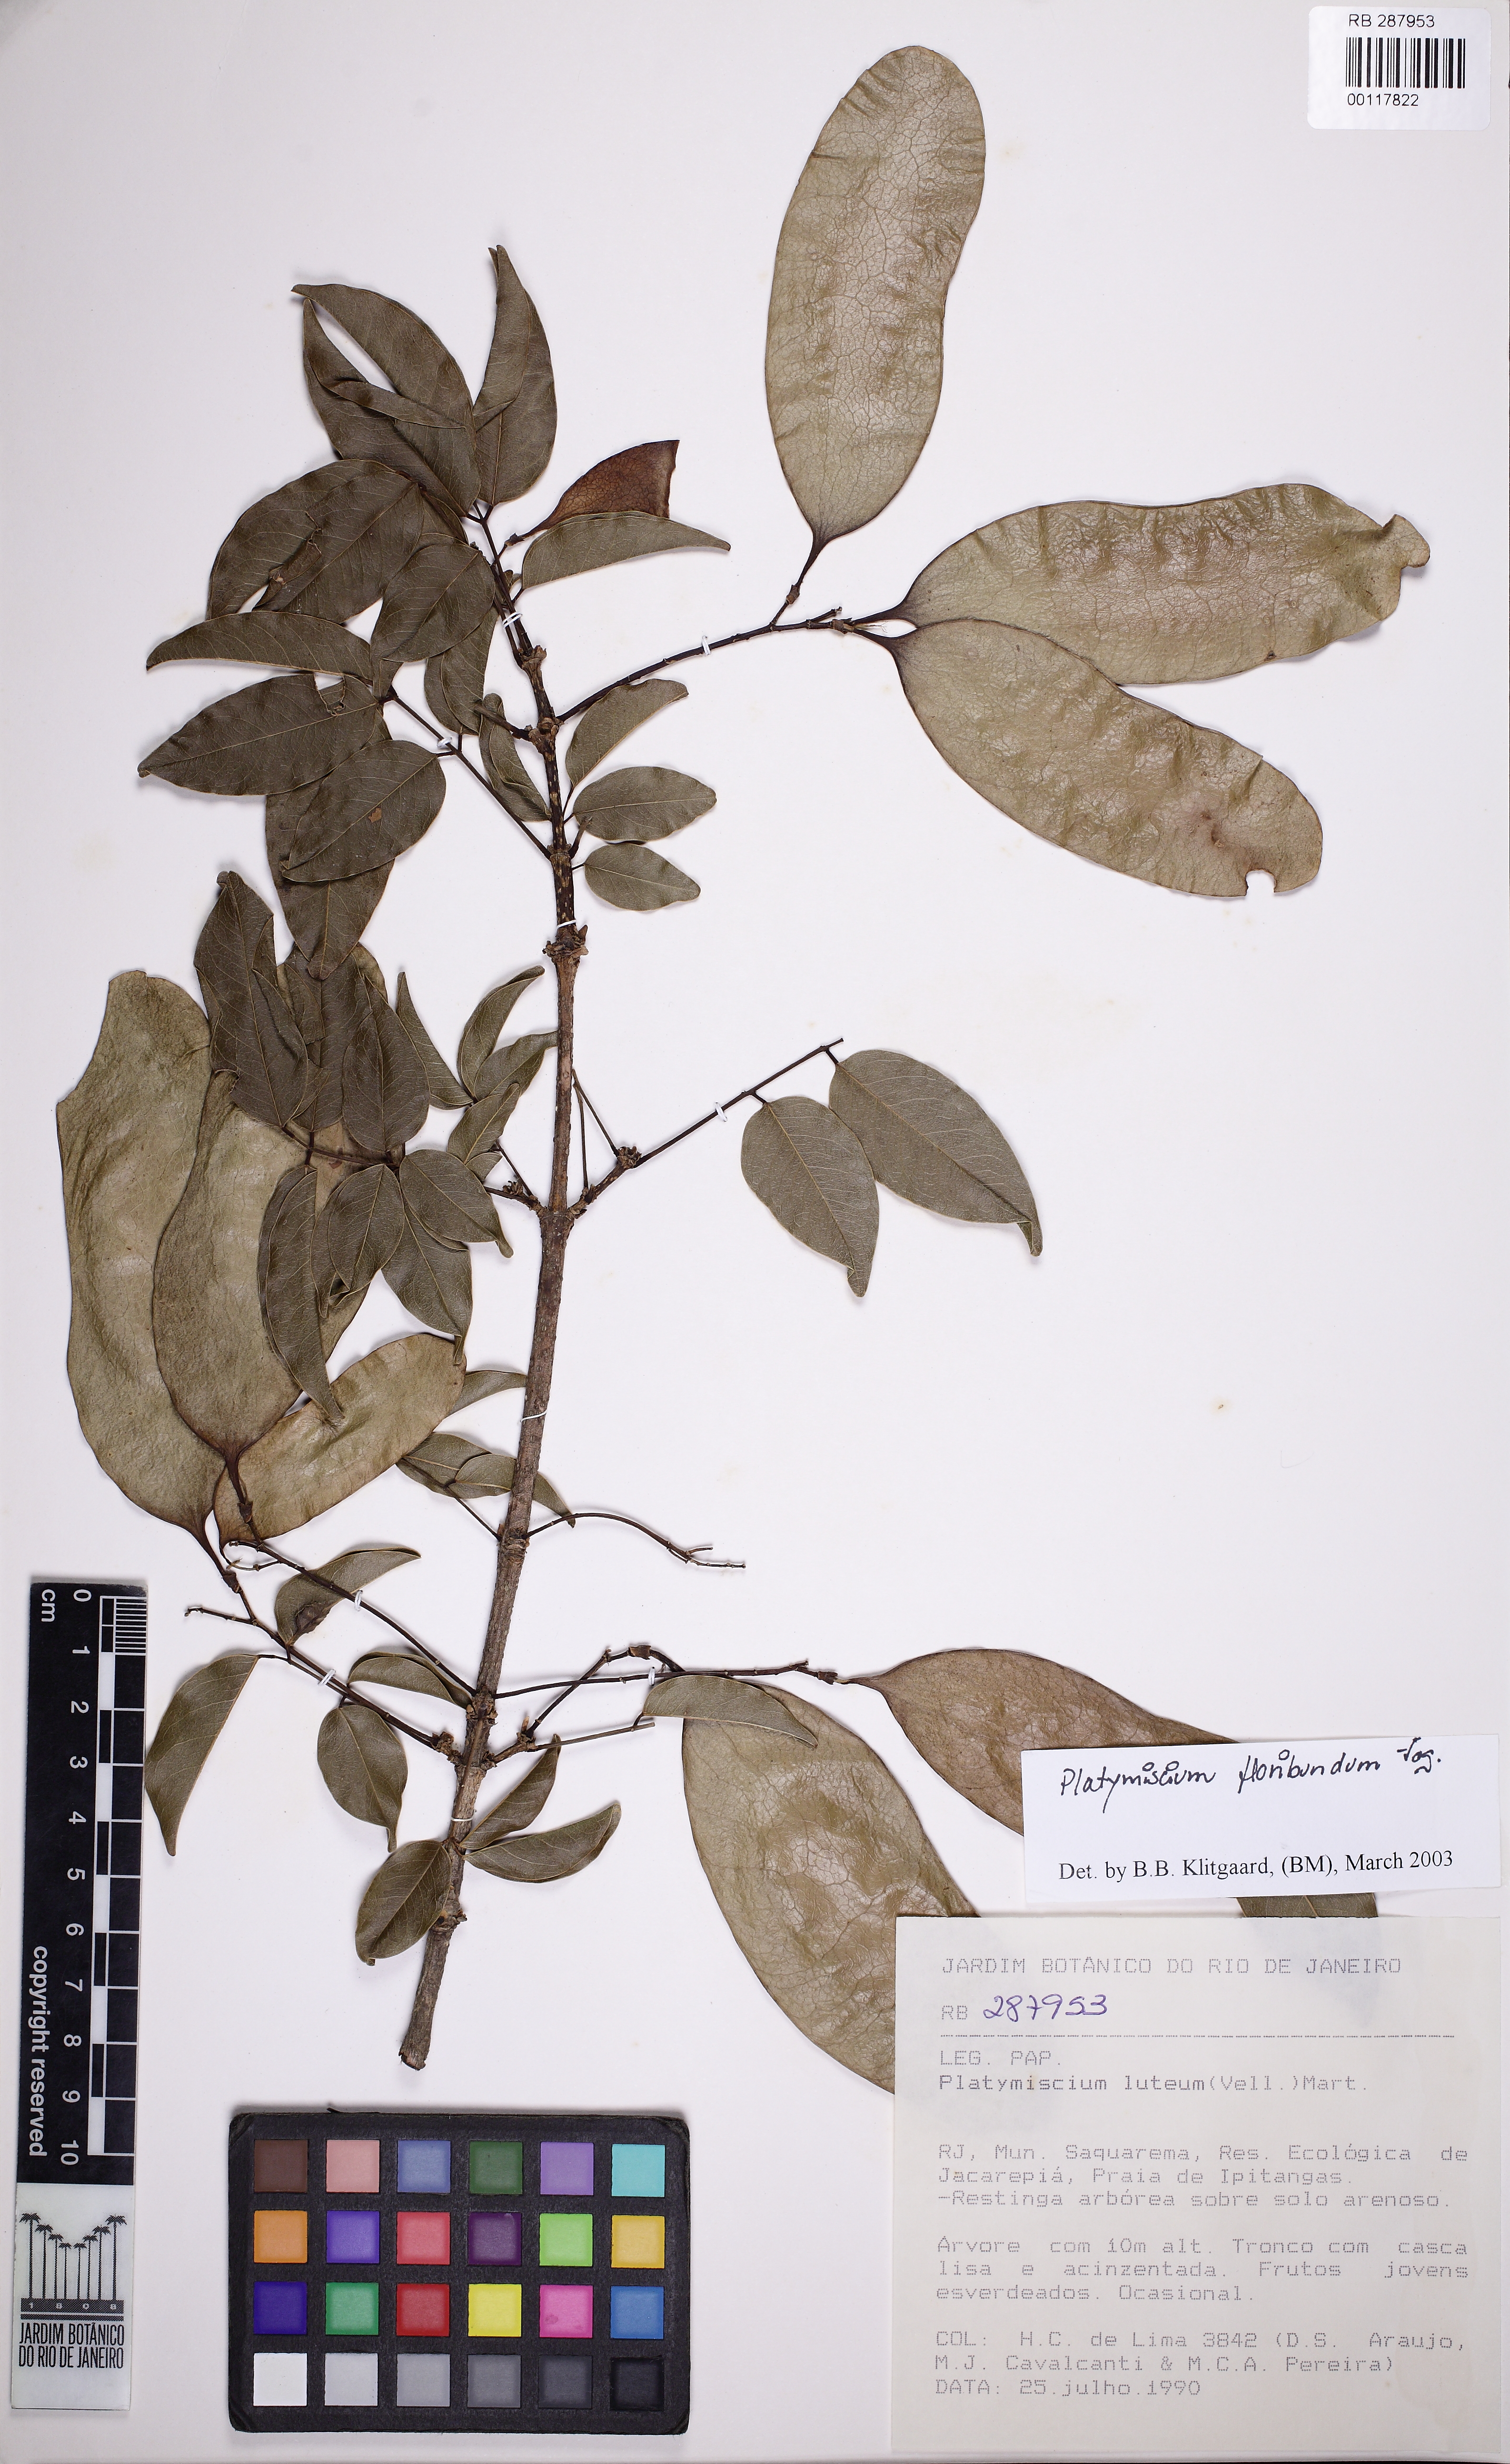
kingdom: Plantae
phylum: Tracheophyta
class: Magnoliopsida
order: Fabales
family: Fabaceae
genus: Platymiscium
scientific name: Platymiscium floribundum
